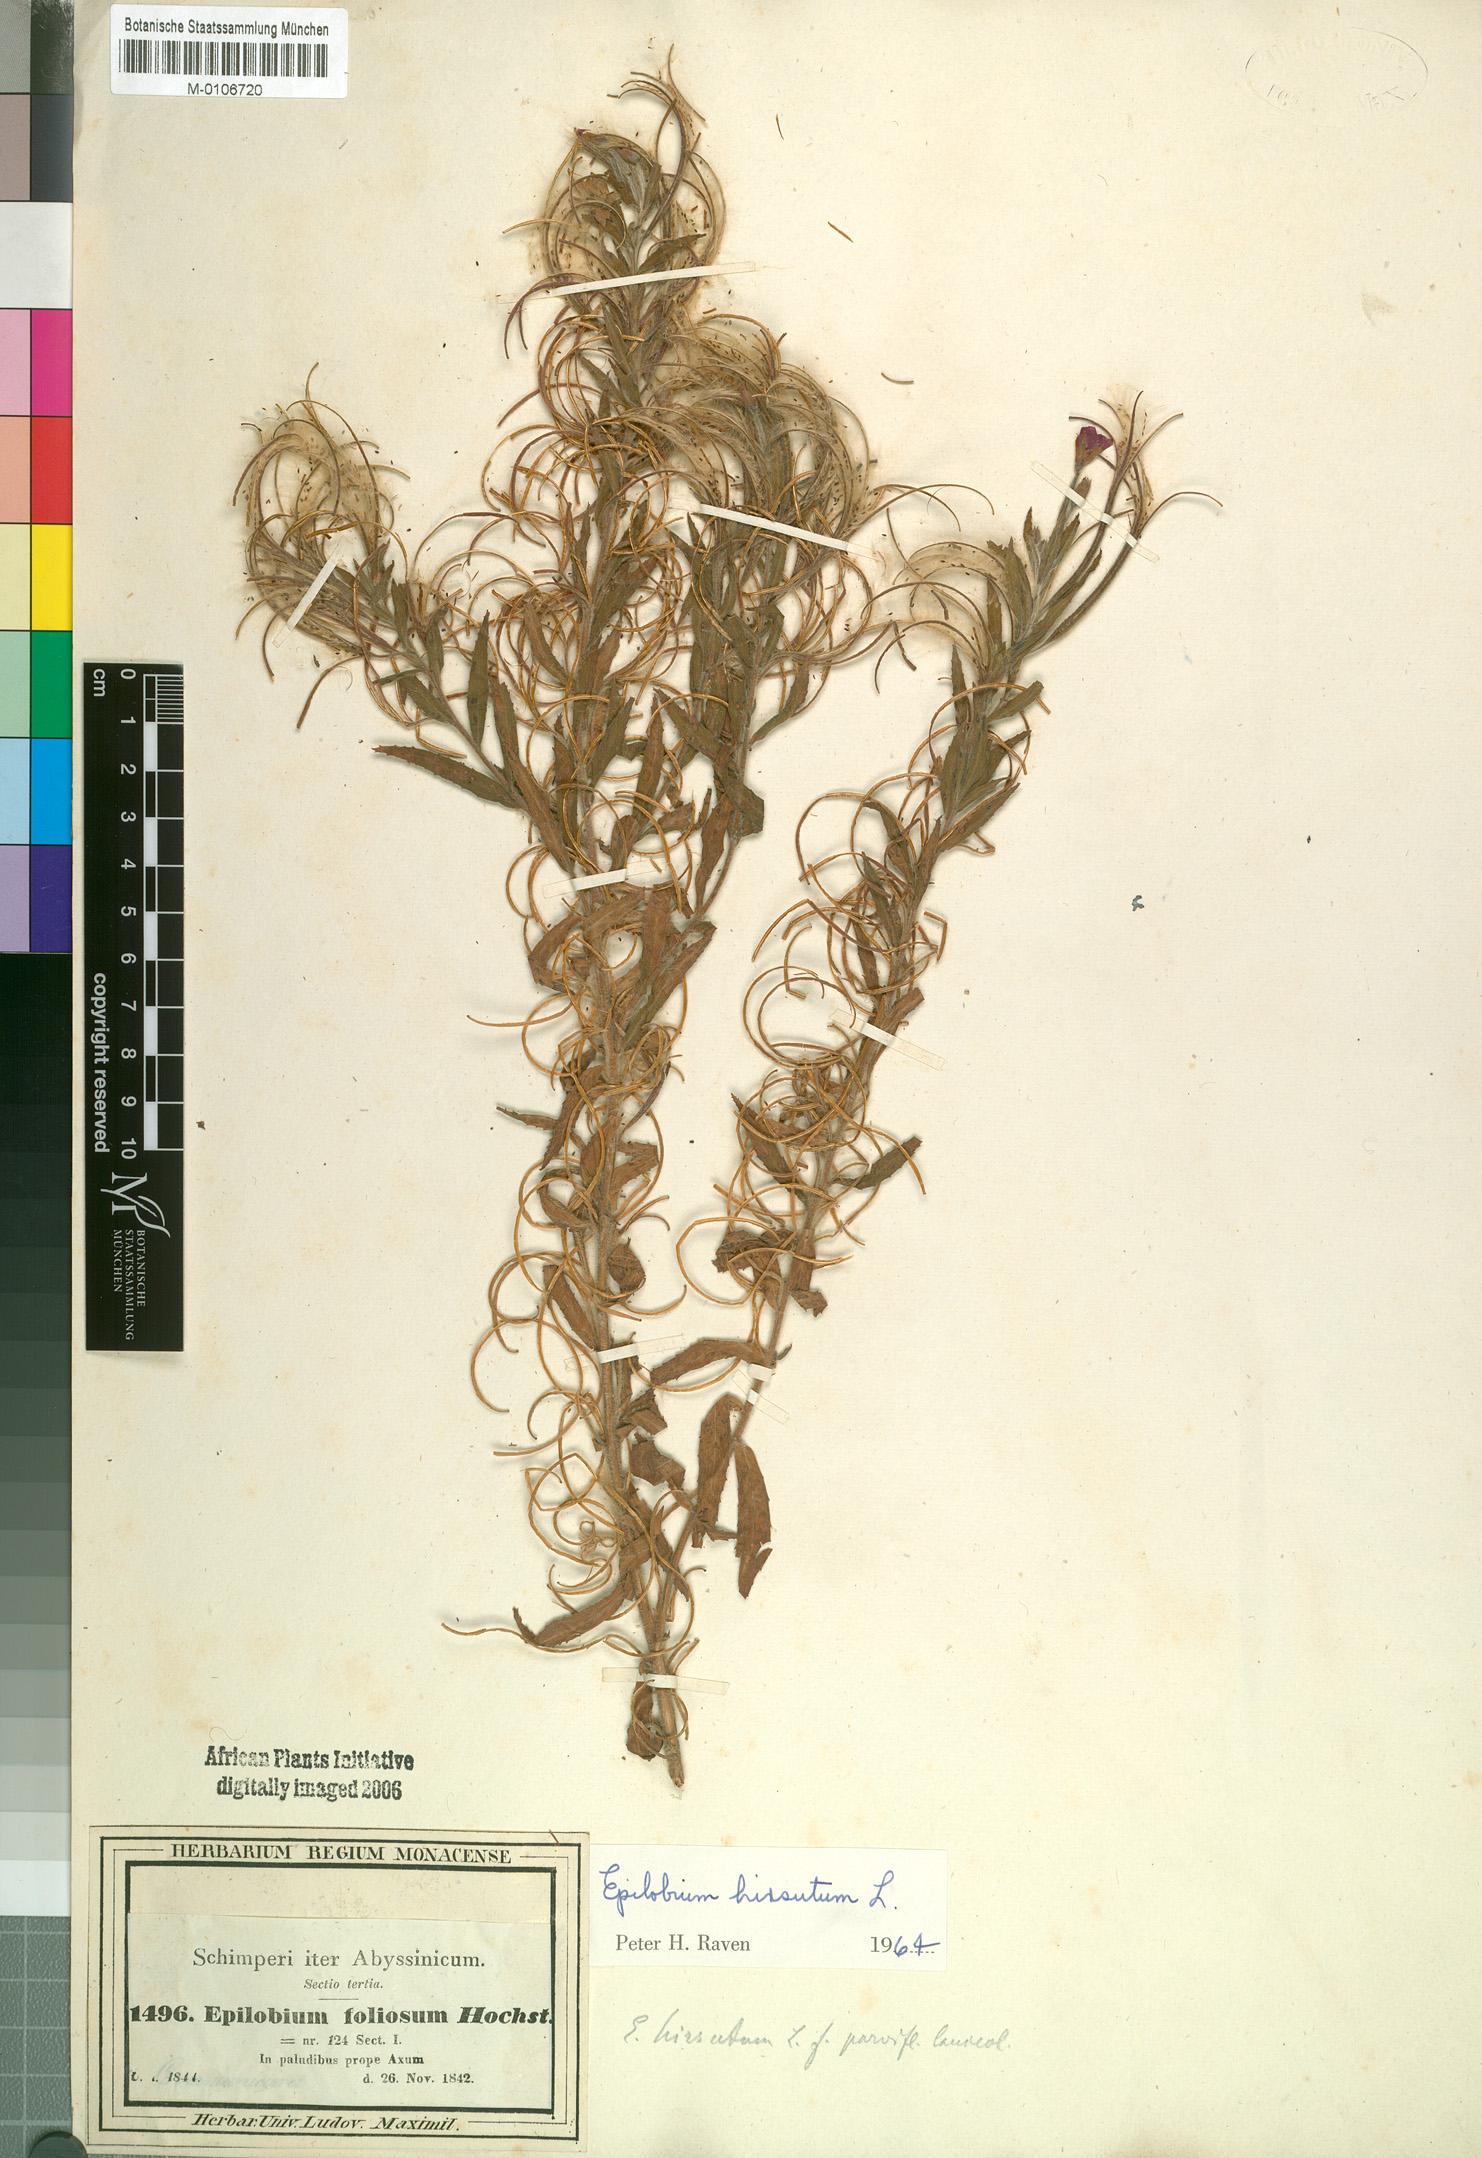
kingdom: Plantae
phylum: Tracheophyta
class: Magnoliopsida
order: Myrtales
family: Onagraceae
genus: Epilobium
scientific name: Epilobium hirsutum
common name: Great willowherb
